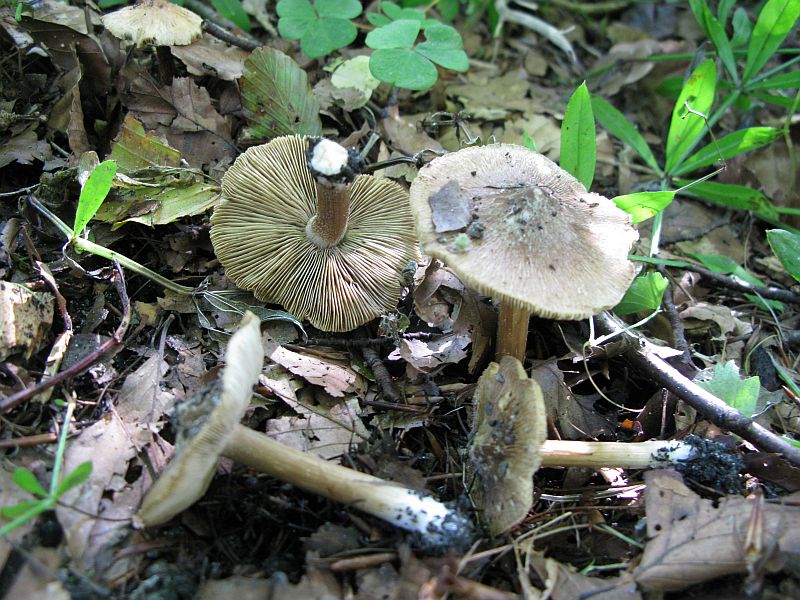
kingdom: Fungi
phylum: Basidiomycota
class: Agaricomycetes
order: Agaricales
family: Inocybaceae
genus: Inocybe
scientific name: Inocybe
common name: trævlhat
